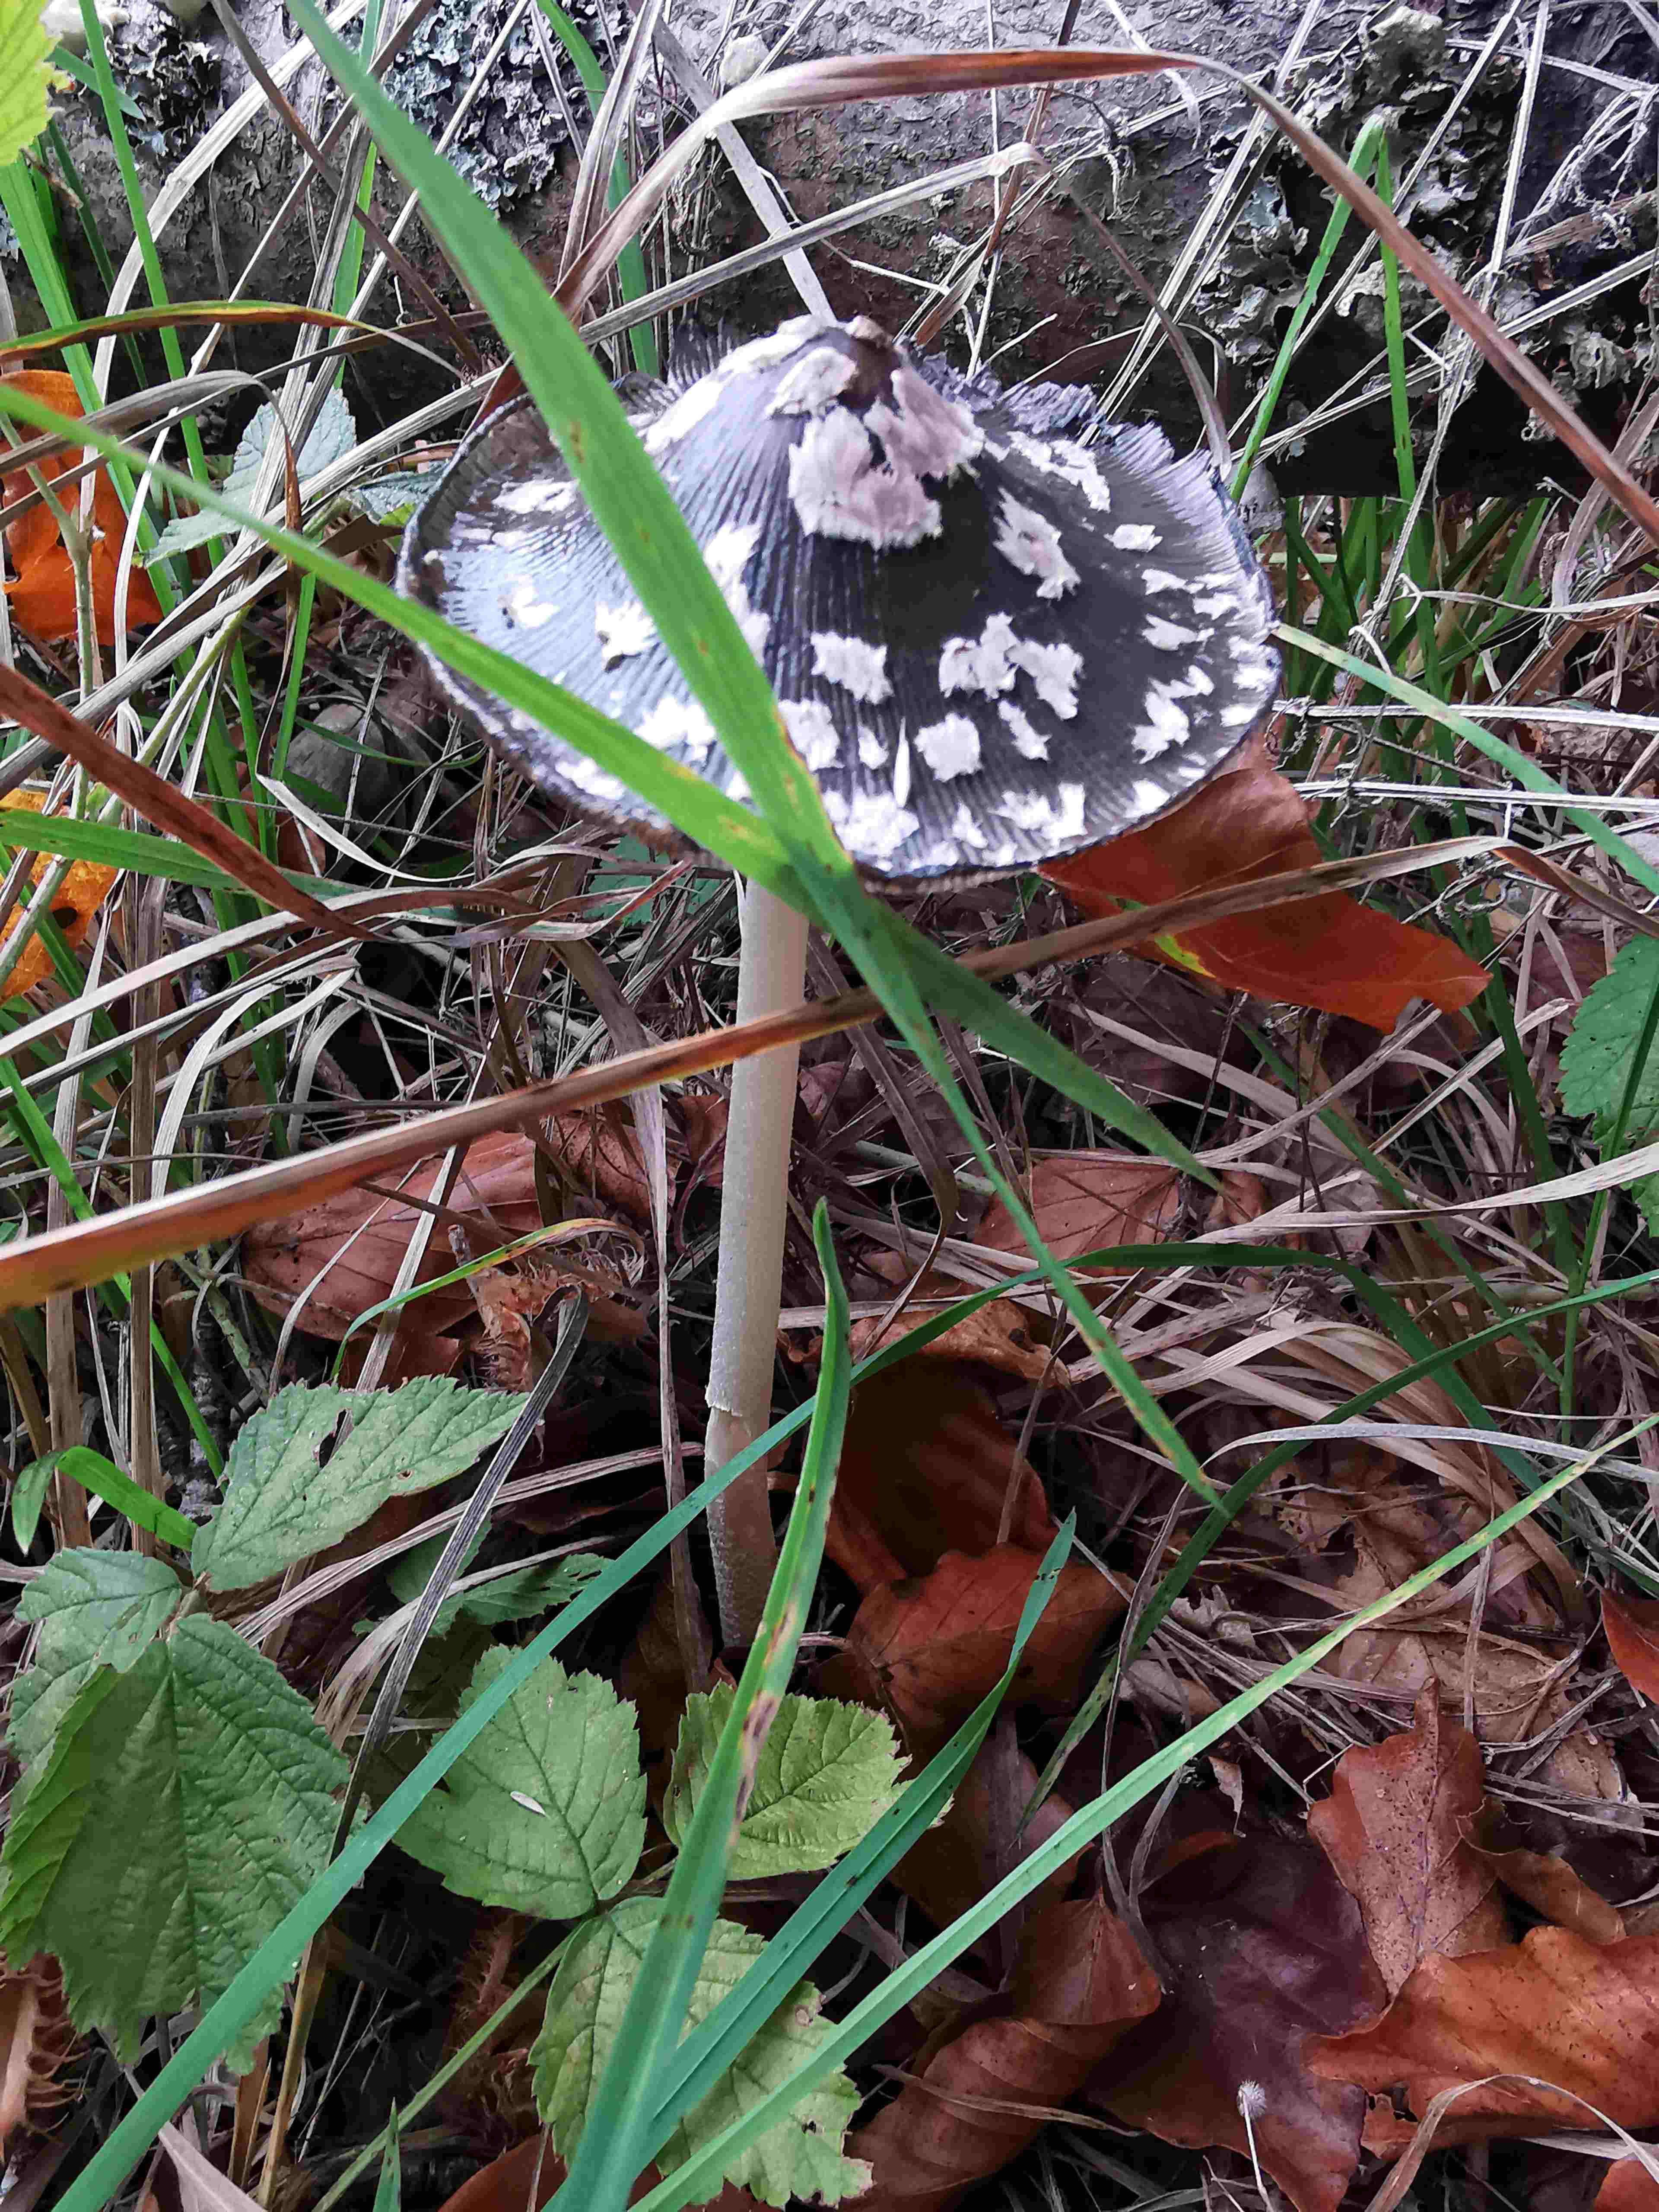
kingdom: Fungi
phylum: Basidiomycota
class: Agaricomycetes
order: Agaricales
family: Psathyrellaceae
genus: Coprinopsis
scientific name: Coprinopsis picacea
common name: skade-blækhat
